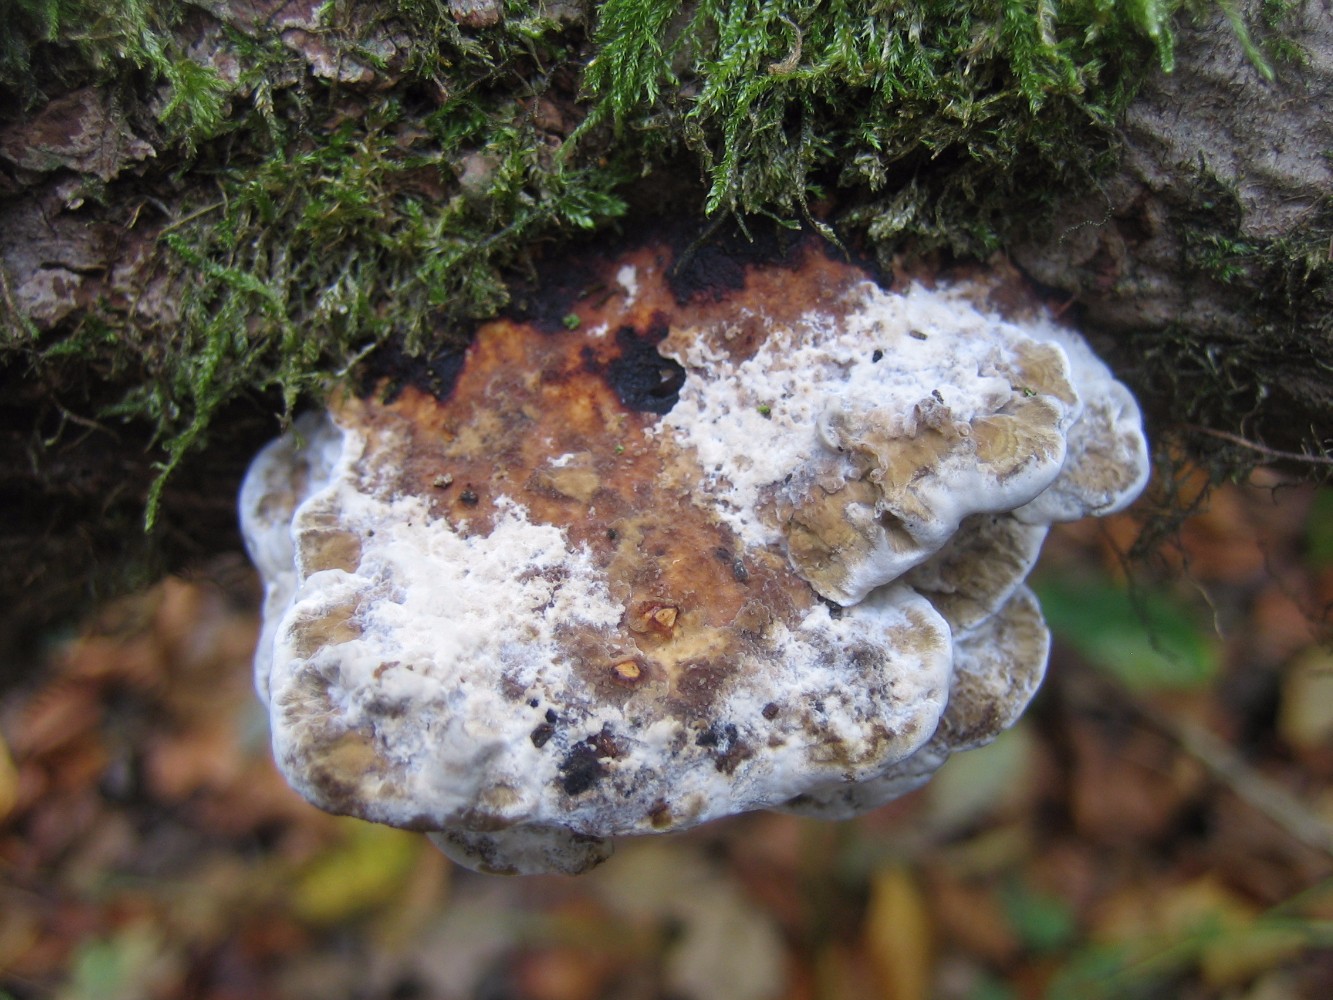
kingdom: Fungi
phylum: Basidiomycota
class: Agaricomycetes
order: Polyporales
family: Polyporaceae
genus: Daedaleopsis
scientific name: Daedaleopsis confragosa
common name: rødmende læderporesvamp
